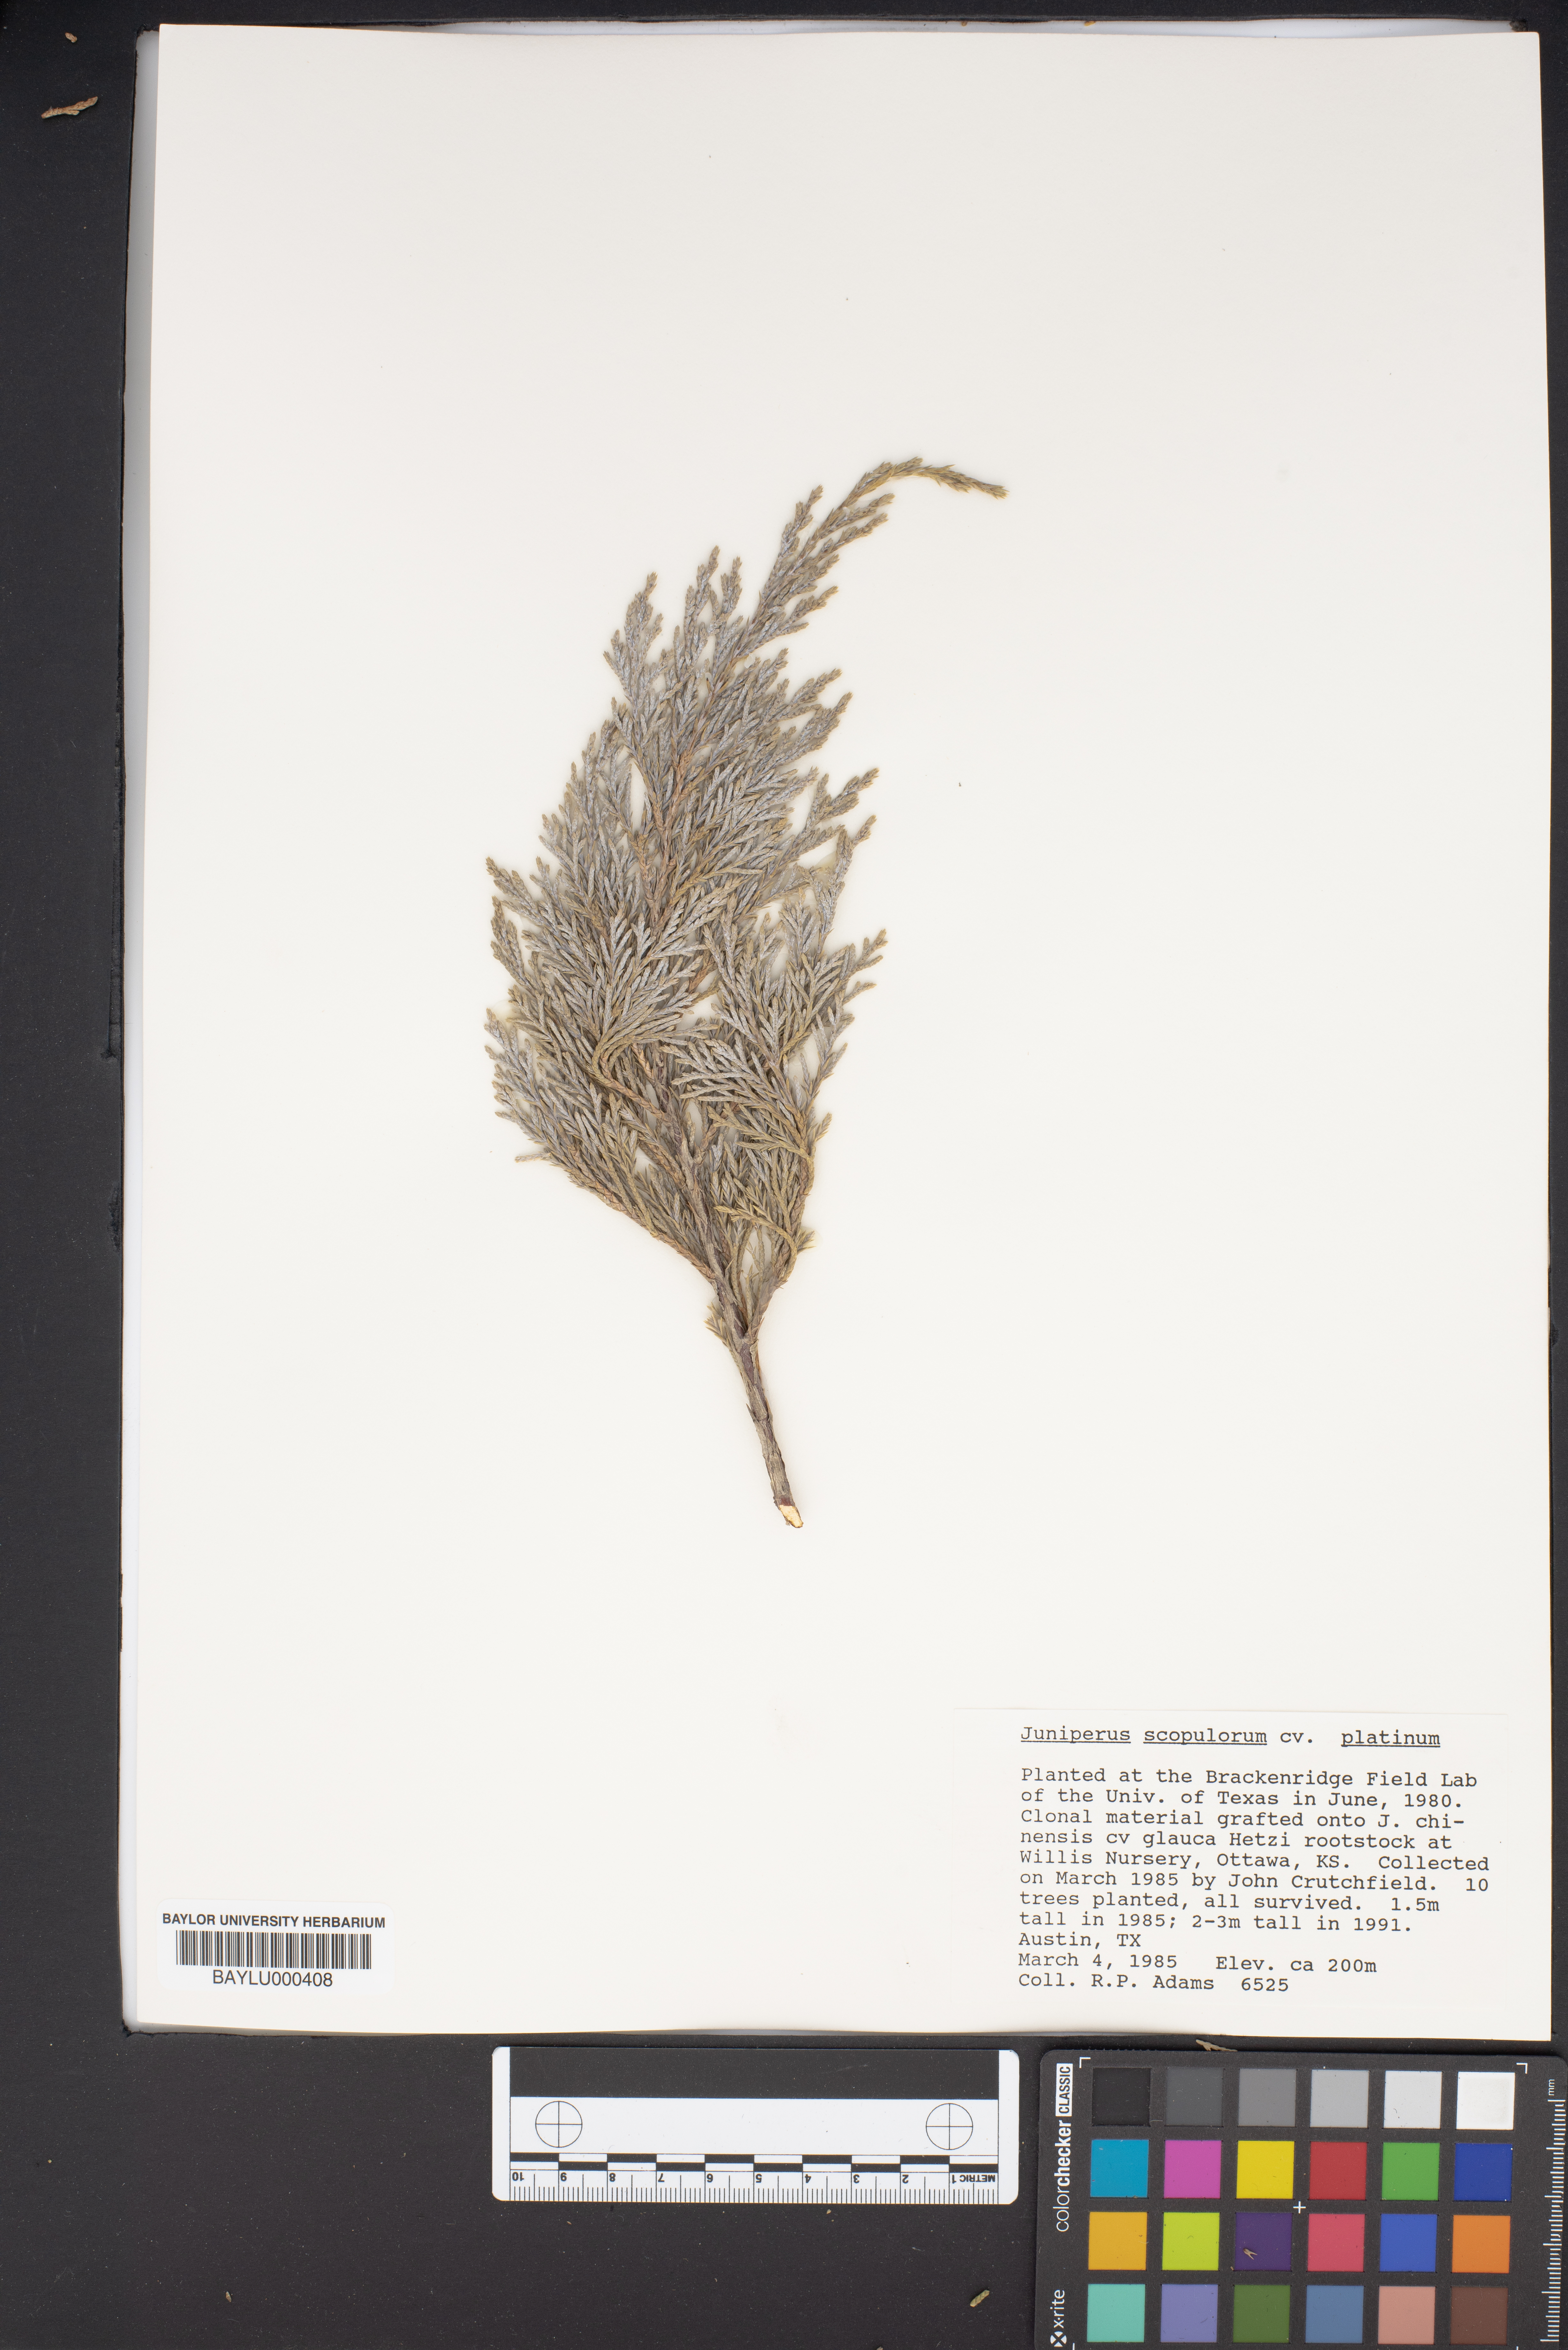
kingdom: Plantae
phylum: Tracheophyta
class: Pinopsida
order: Pinales
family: Cupressaceae
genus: Juniperus
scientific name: Juniperus scopulorum
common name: Rocky mountain juniper
